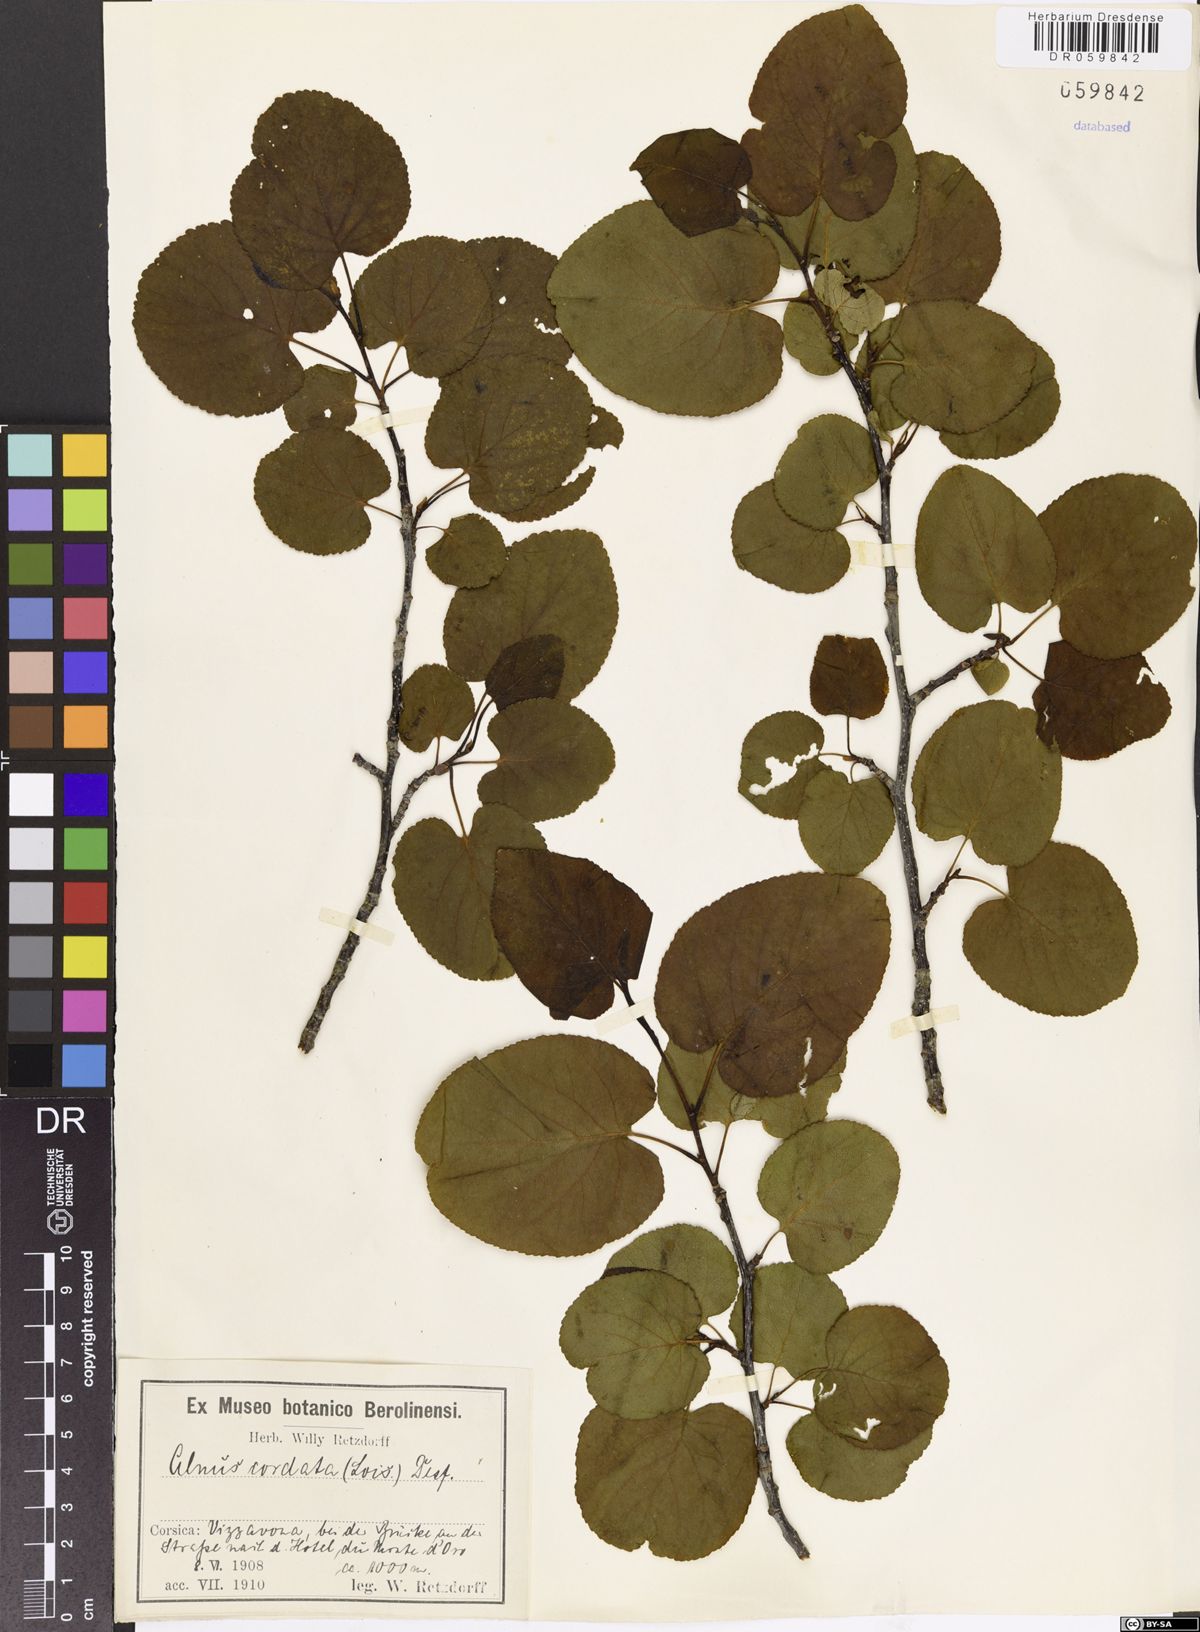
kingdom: Plantae
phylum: Tracheophyta
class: Magnoliopsida
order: Fagales
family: Betulaceae
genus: Alnus
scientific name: Alnus cordata
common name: Italian alder
